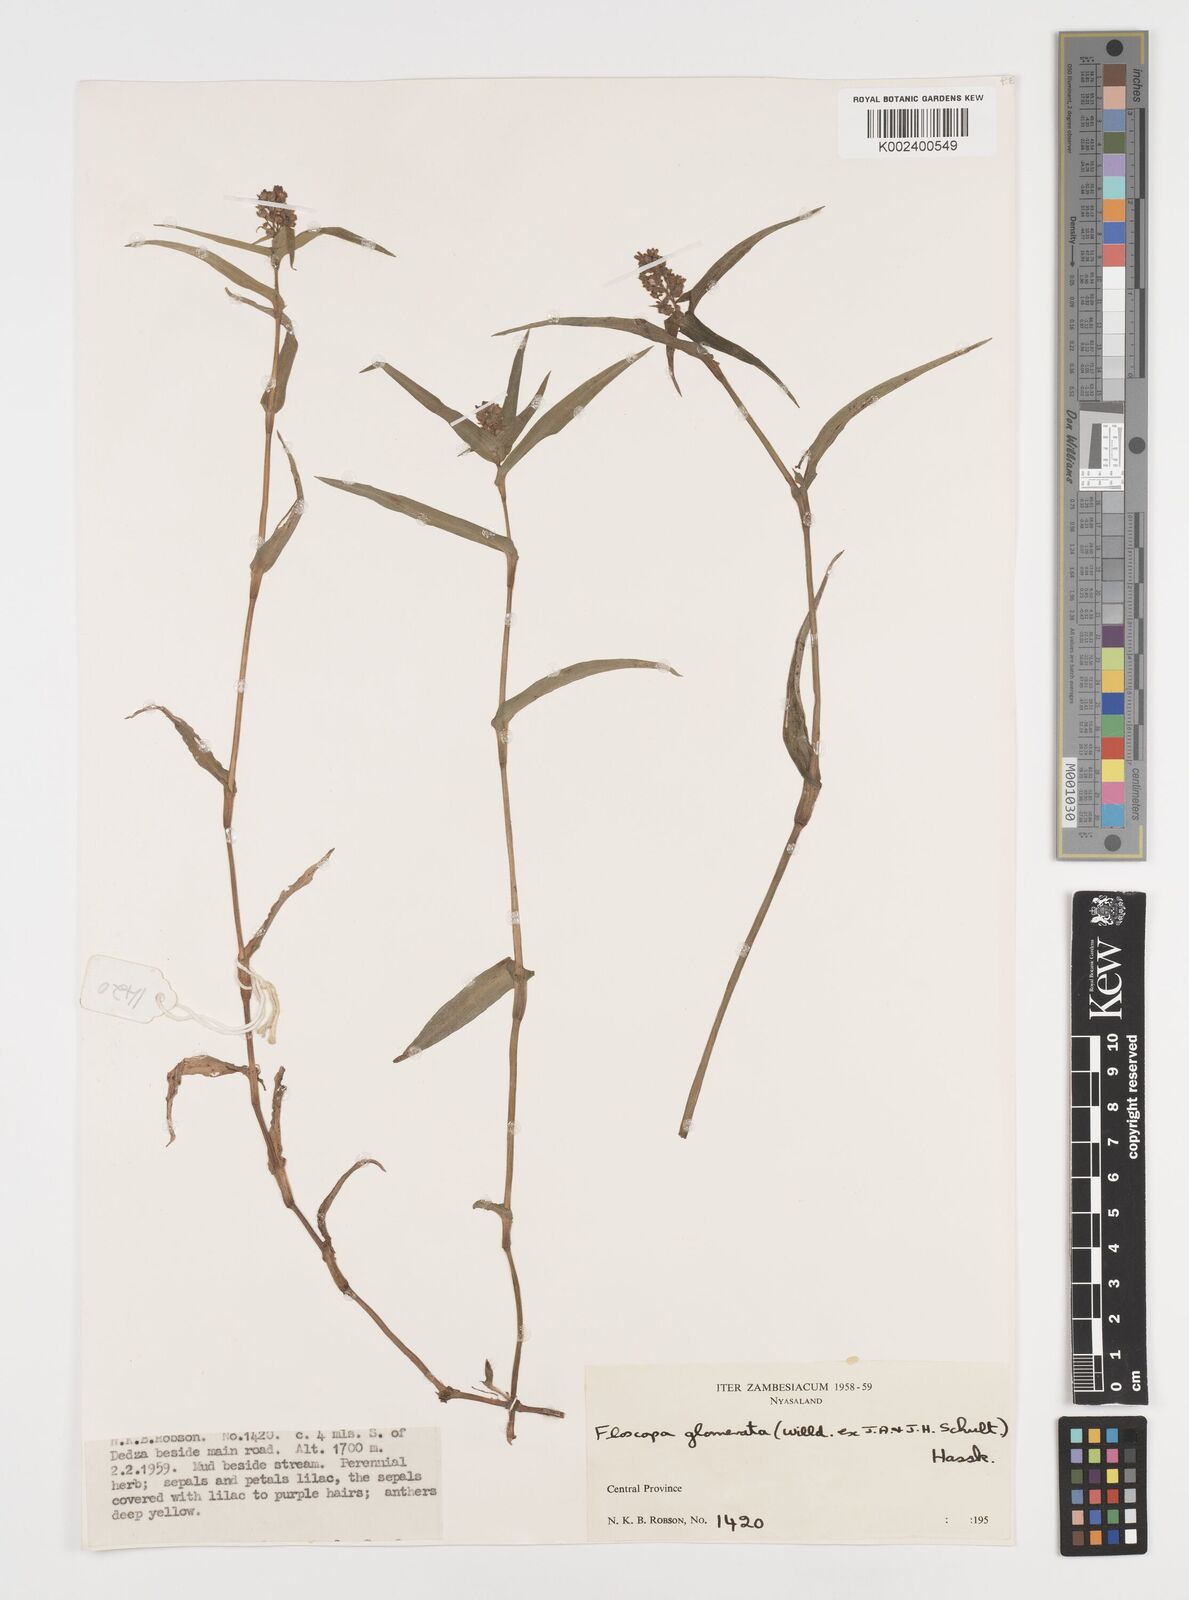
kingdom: Plantae
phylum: Tracheophyta
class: Liliopsida
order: Commelinales
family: Commelinaceae
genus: Floscopa
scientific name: Floscopa glomerata
